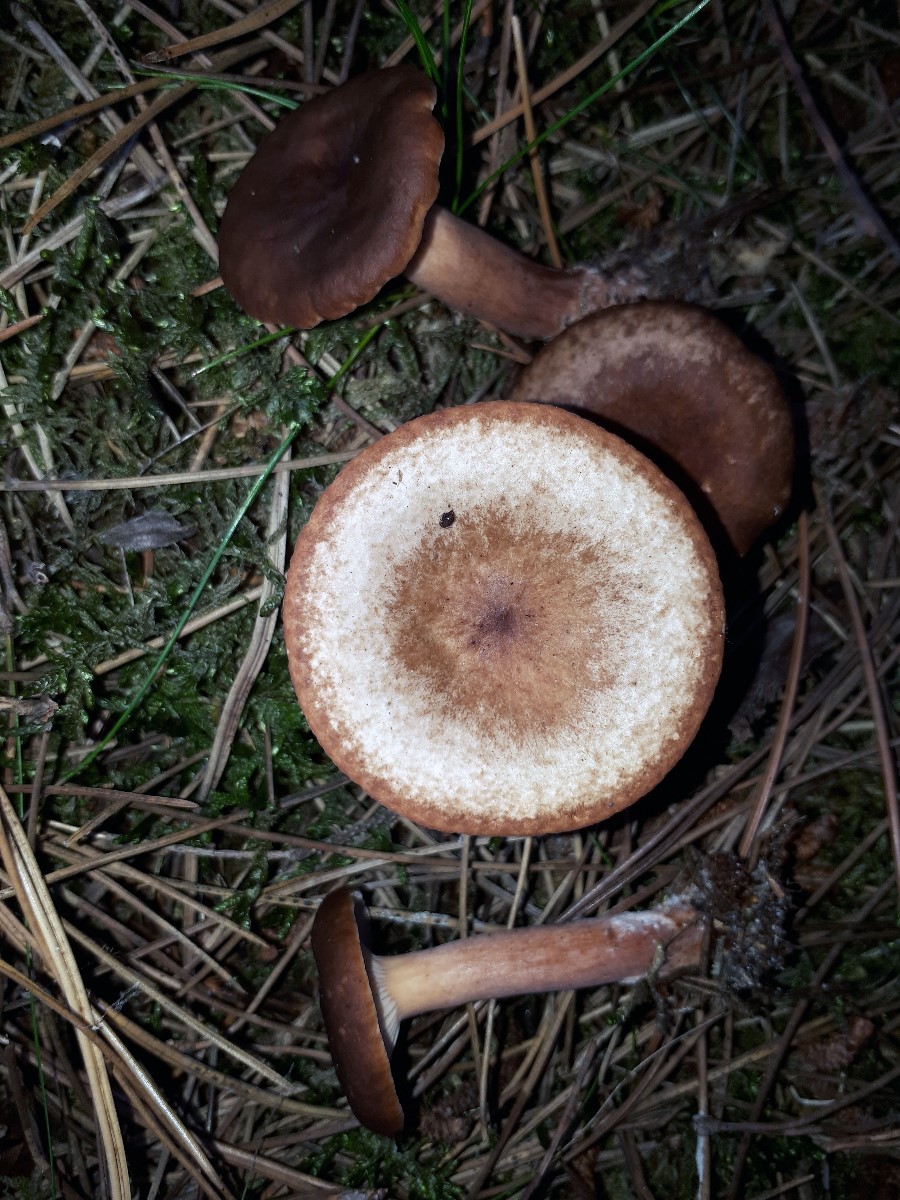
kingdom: Fungi
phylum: Basidiomycota
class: Agaricomycetes
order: Russulales
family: Russulaceae
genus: Lactarius
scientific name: Lactarius hepaticus
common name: leverbrun mælkehat
